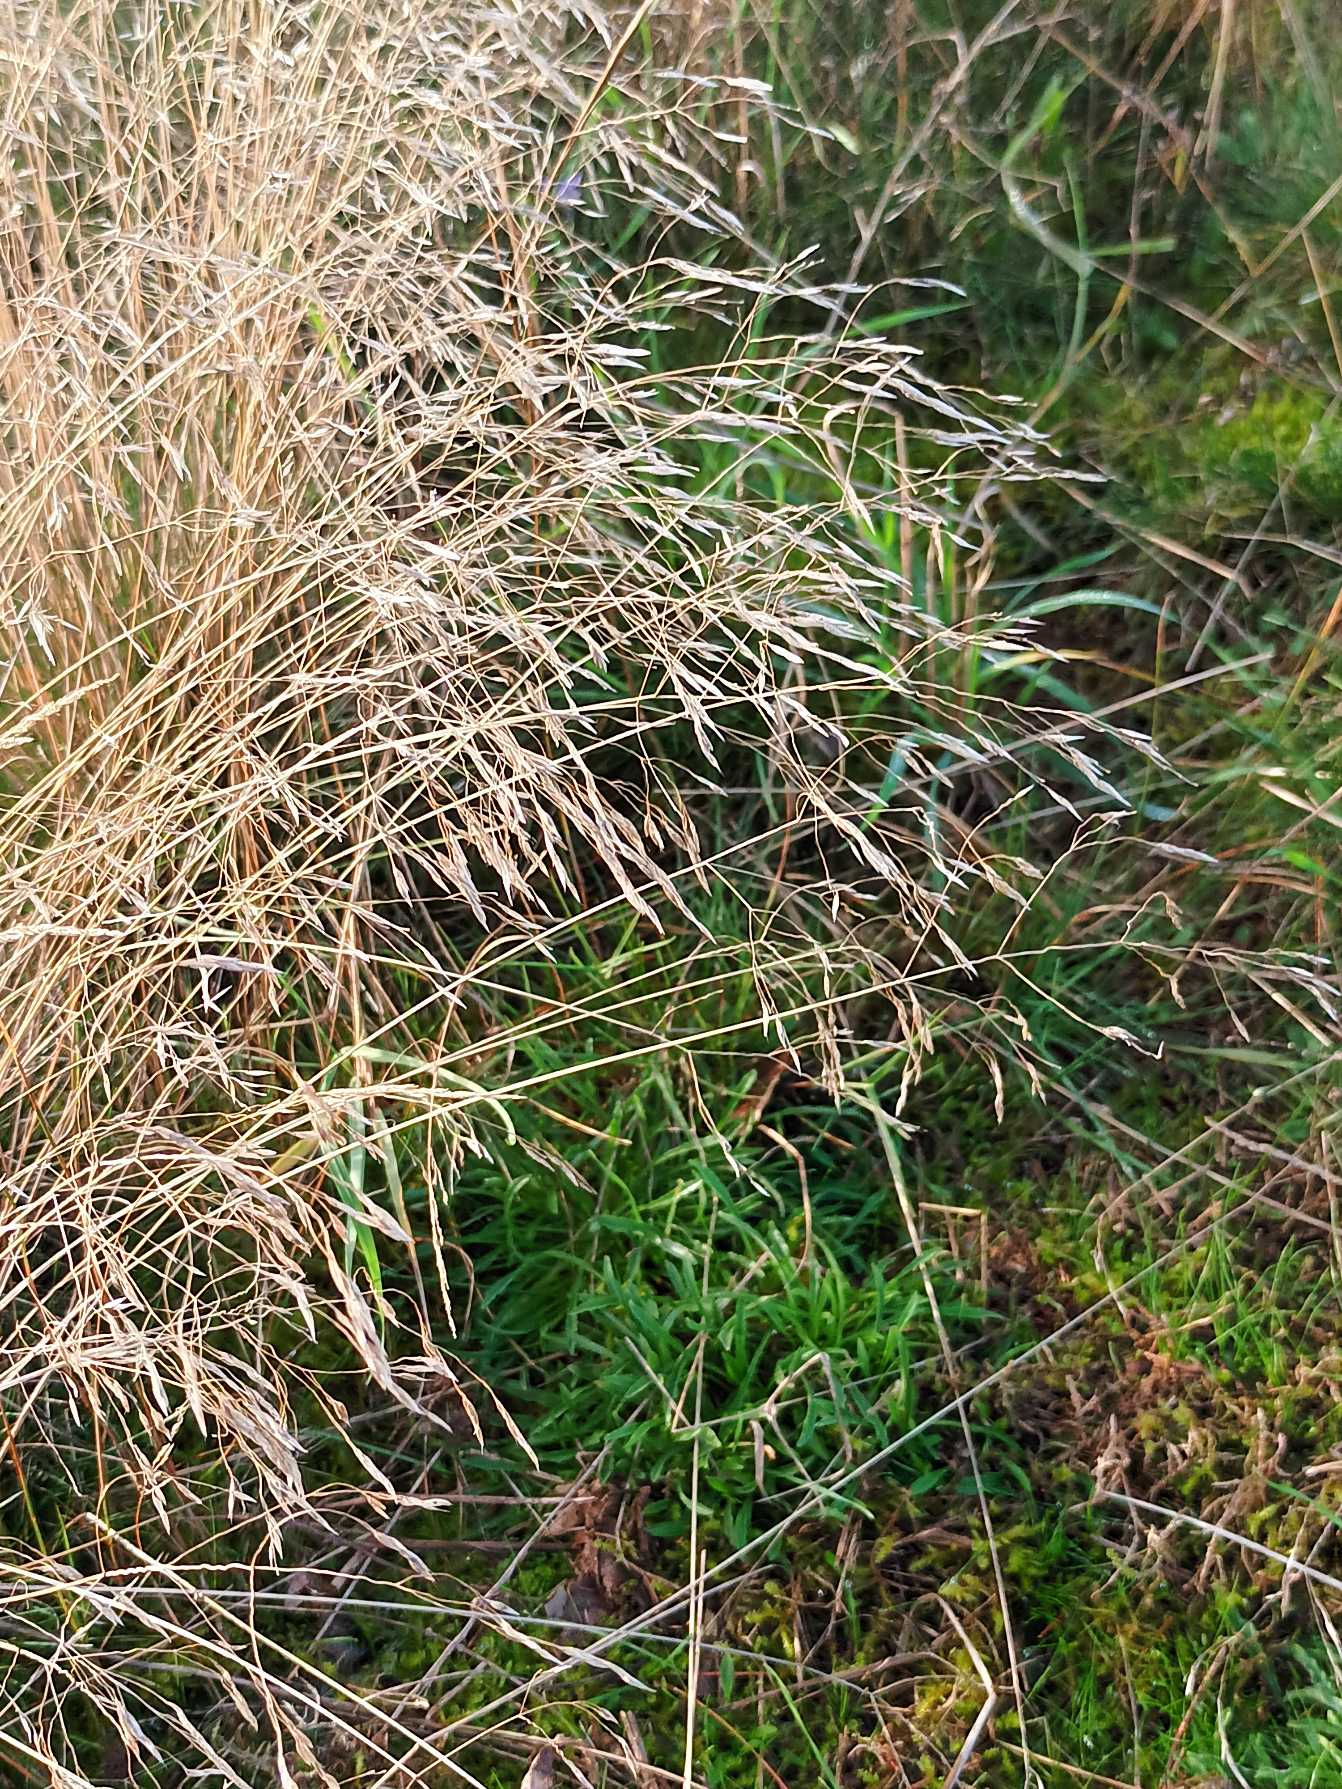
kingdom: Plantae
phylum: Tracheophyta
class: Liliopsida
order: Poales
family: Poaceae
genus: Avenella
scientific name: Avenella flexuosa
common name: Bølget bunke
